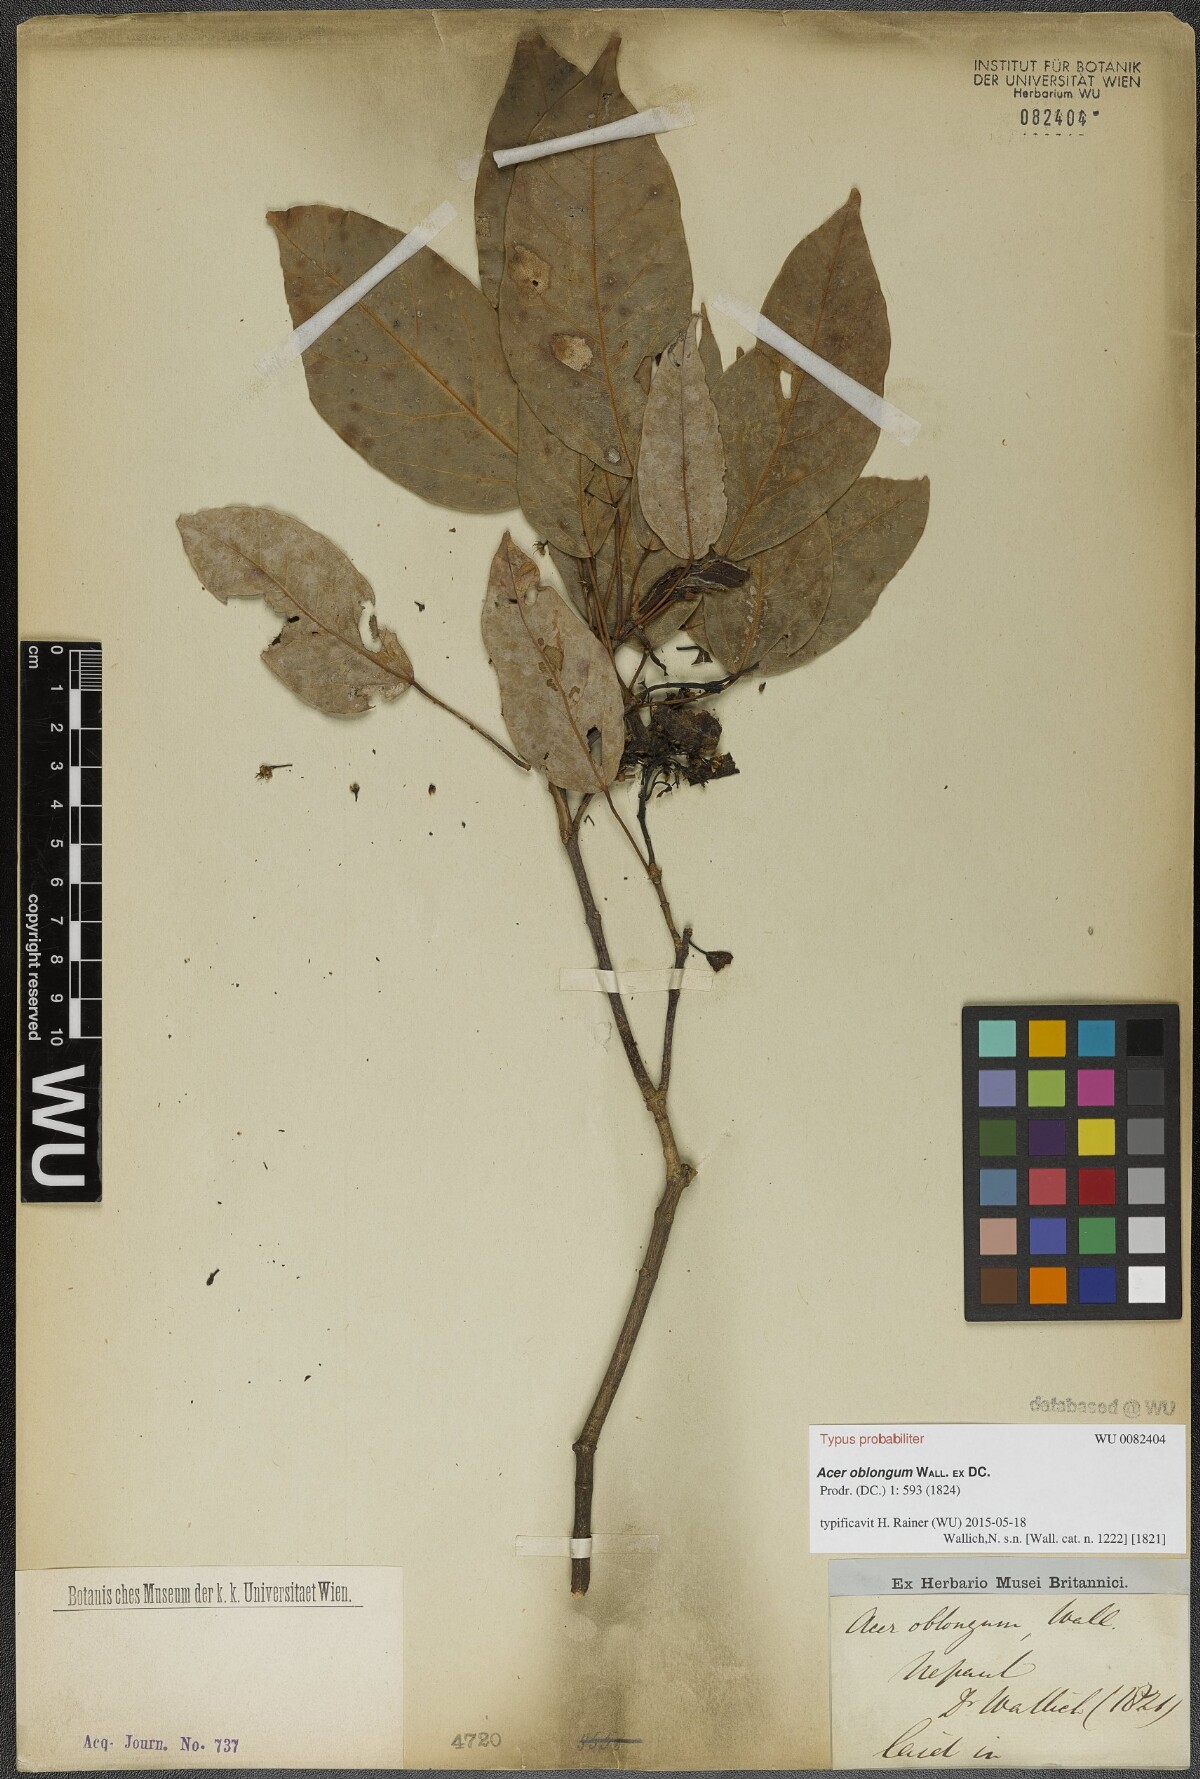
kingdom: Plantae
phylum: Tracheophyta
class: Magnoliopsida
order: Sapindales
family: Sapindaceae
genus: Acer
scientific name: Acer oblongum
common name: Himalayan maple
